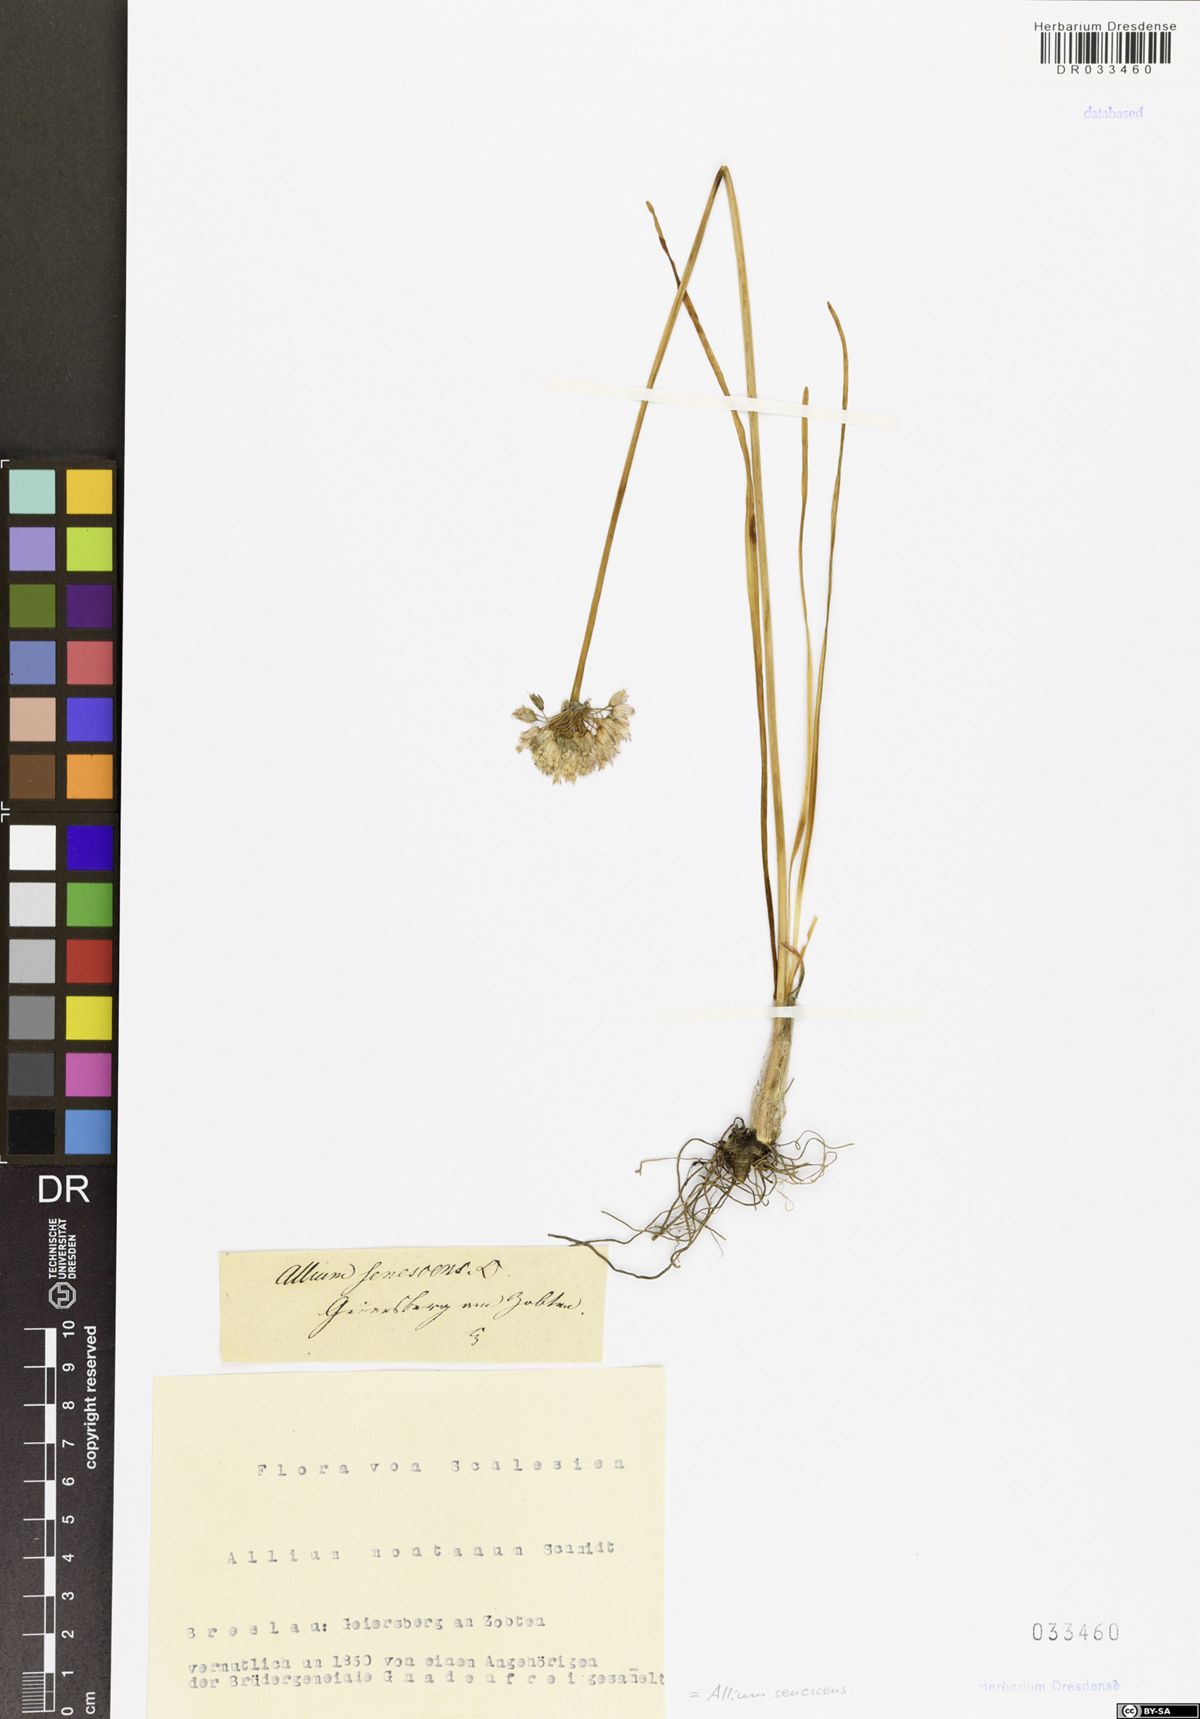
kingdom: Plantae
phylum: Tracheophyta
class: Liliopsida
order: Asparagales
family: Amaryllidaceae
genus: Allium
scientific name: Allium senescens
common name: German garlic
